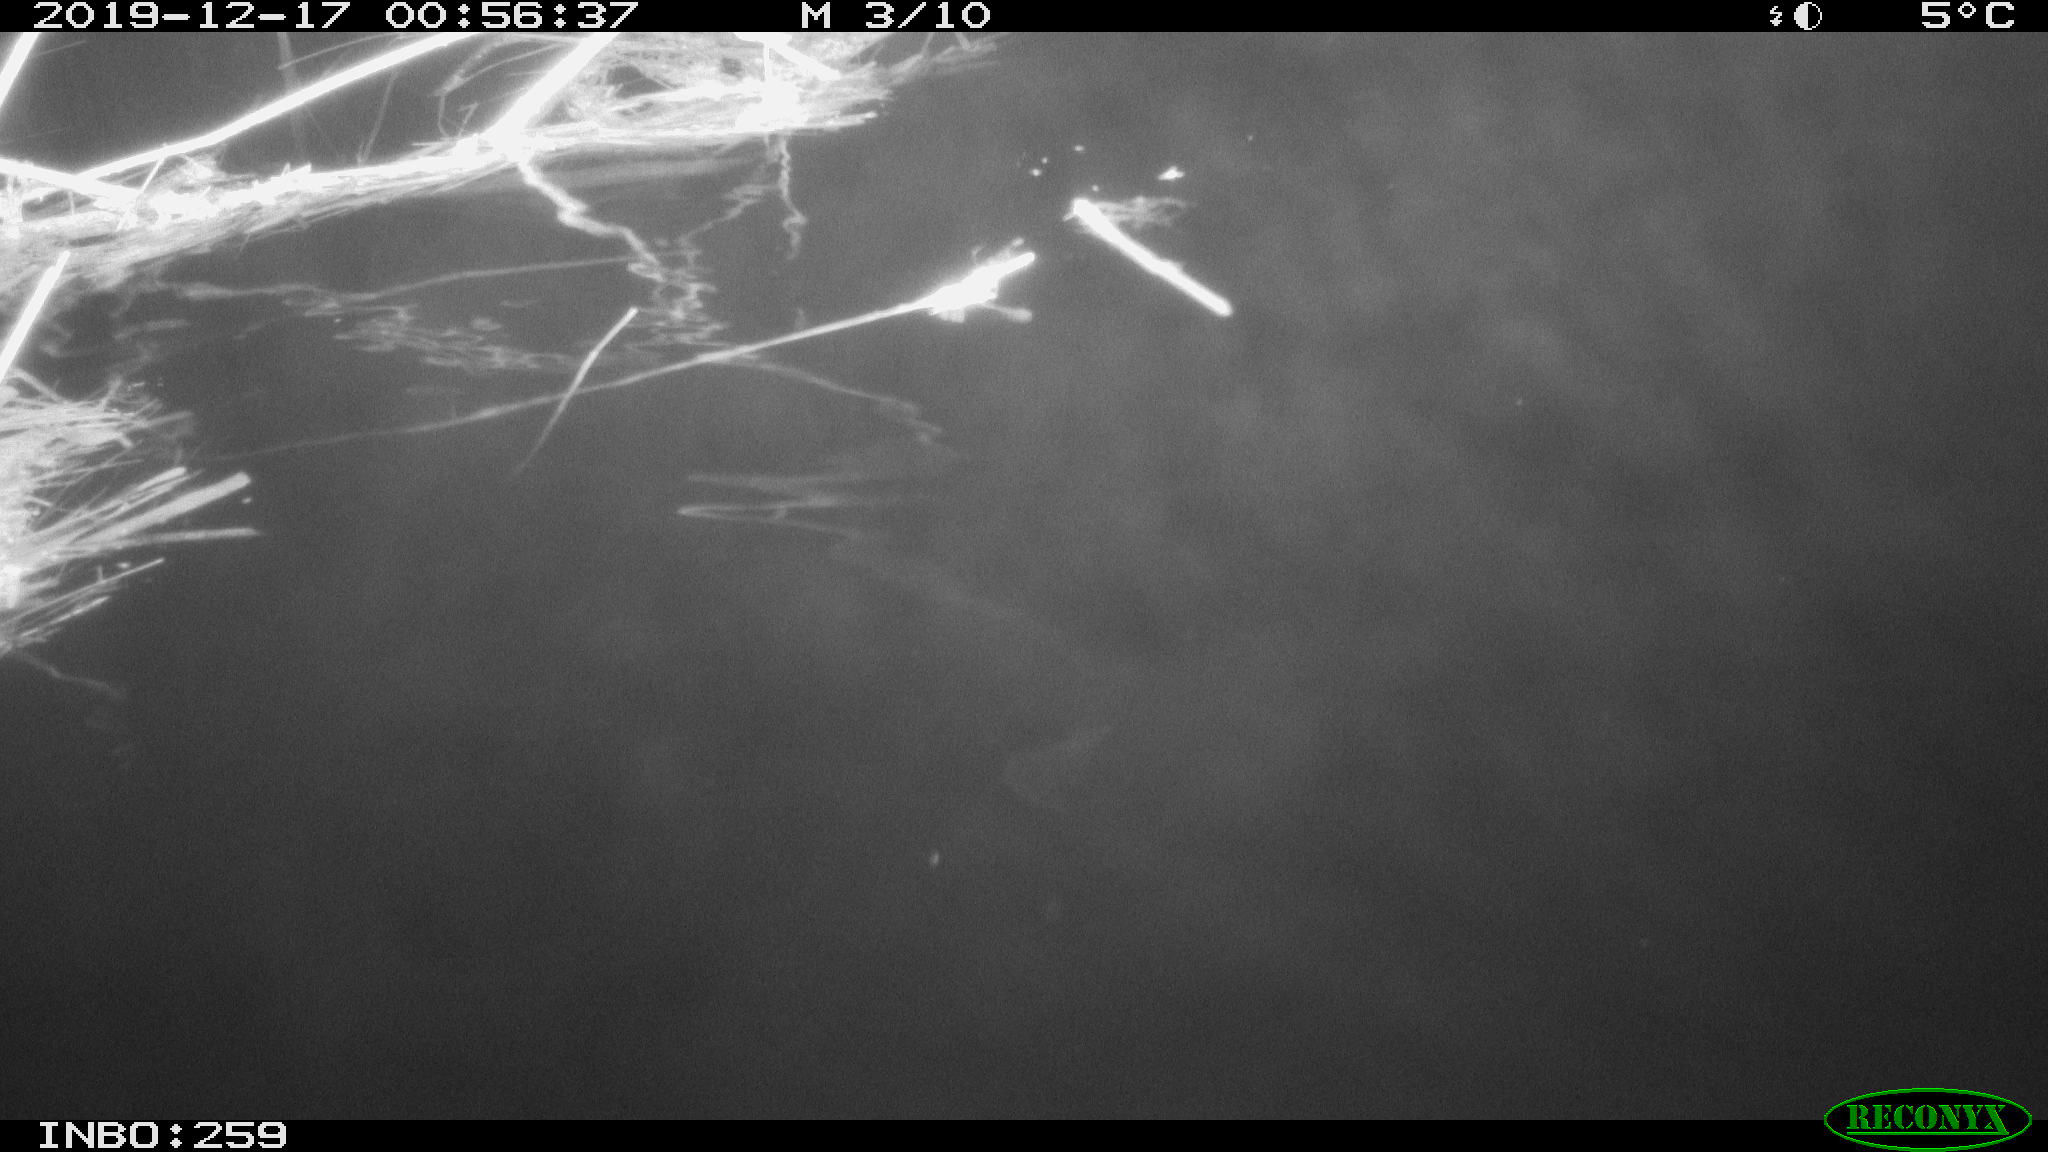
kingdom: Animalia
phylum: Chordata
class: Mammalia
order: Rodentia
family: Cricetidae
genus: Ondatra
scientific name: Ondatra zibethicus
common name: Muskrat
